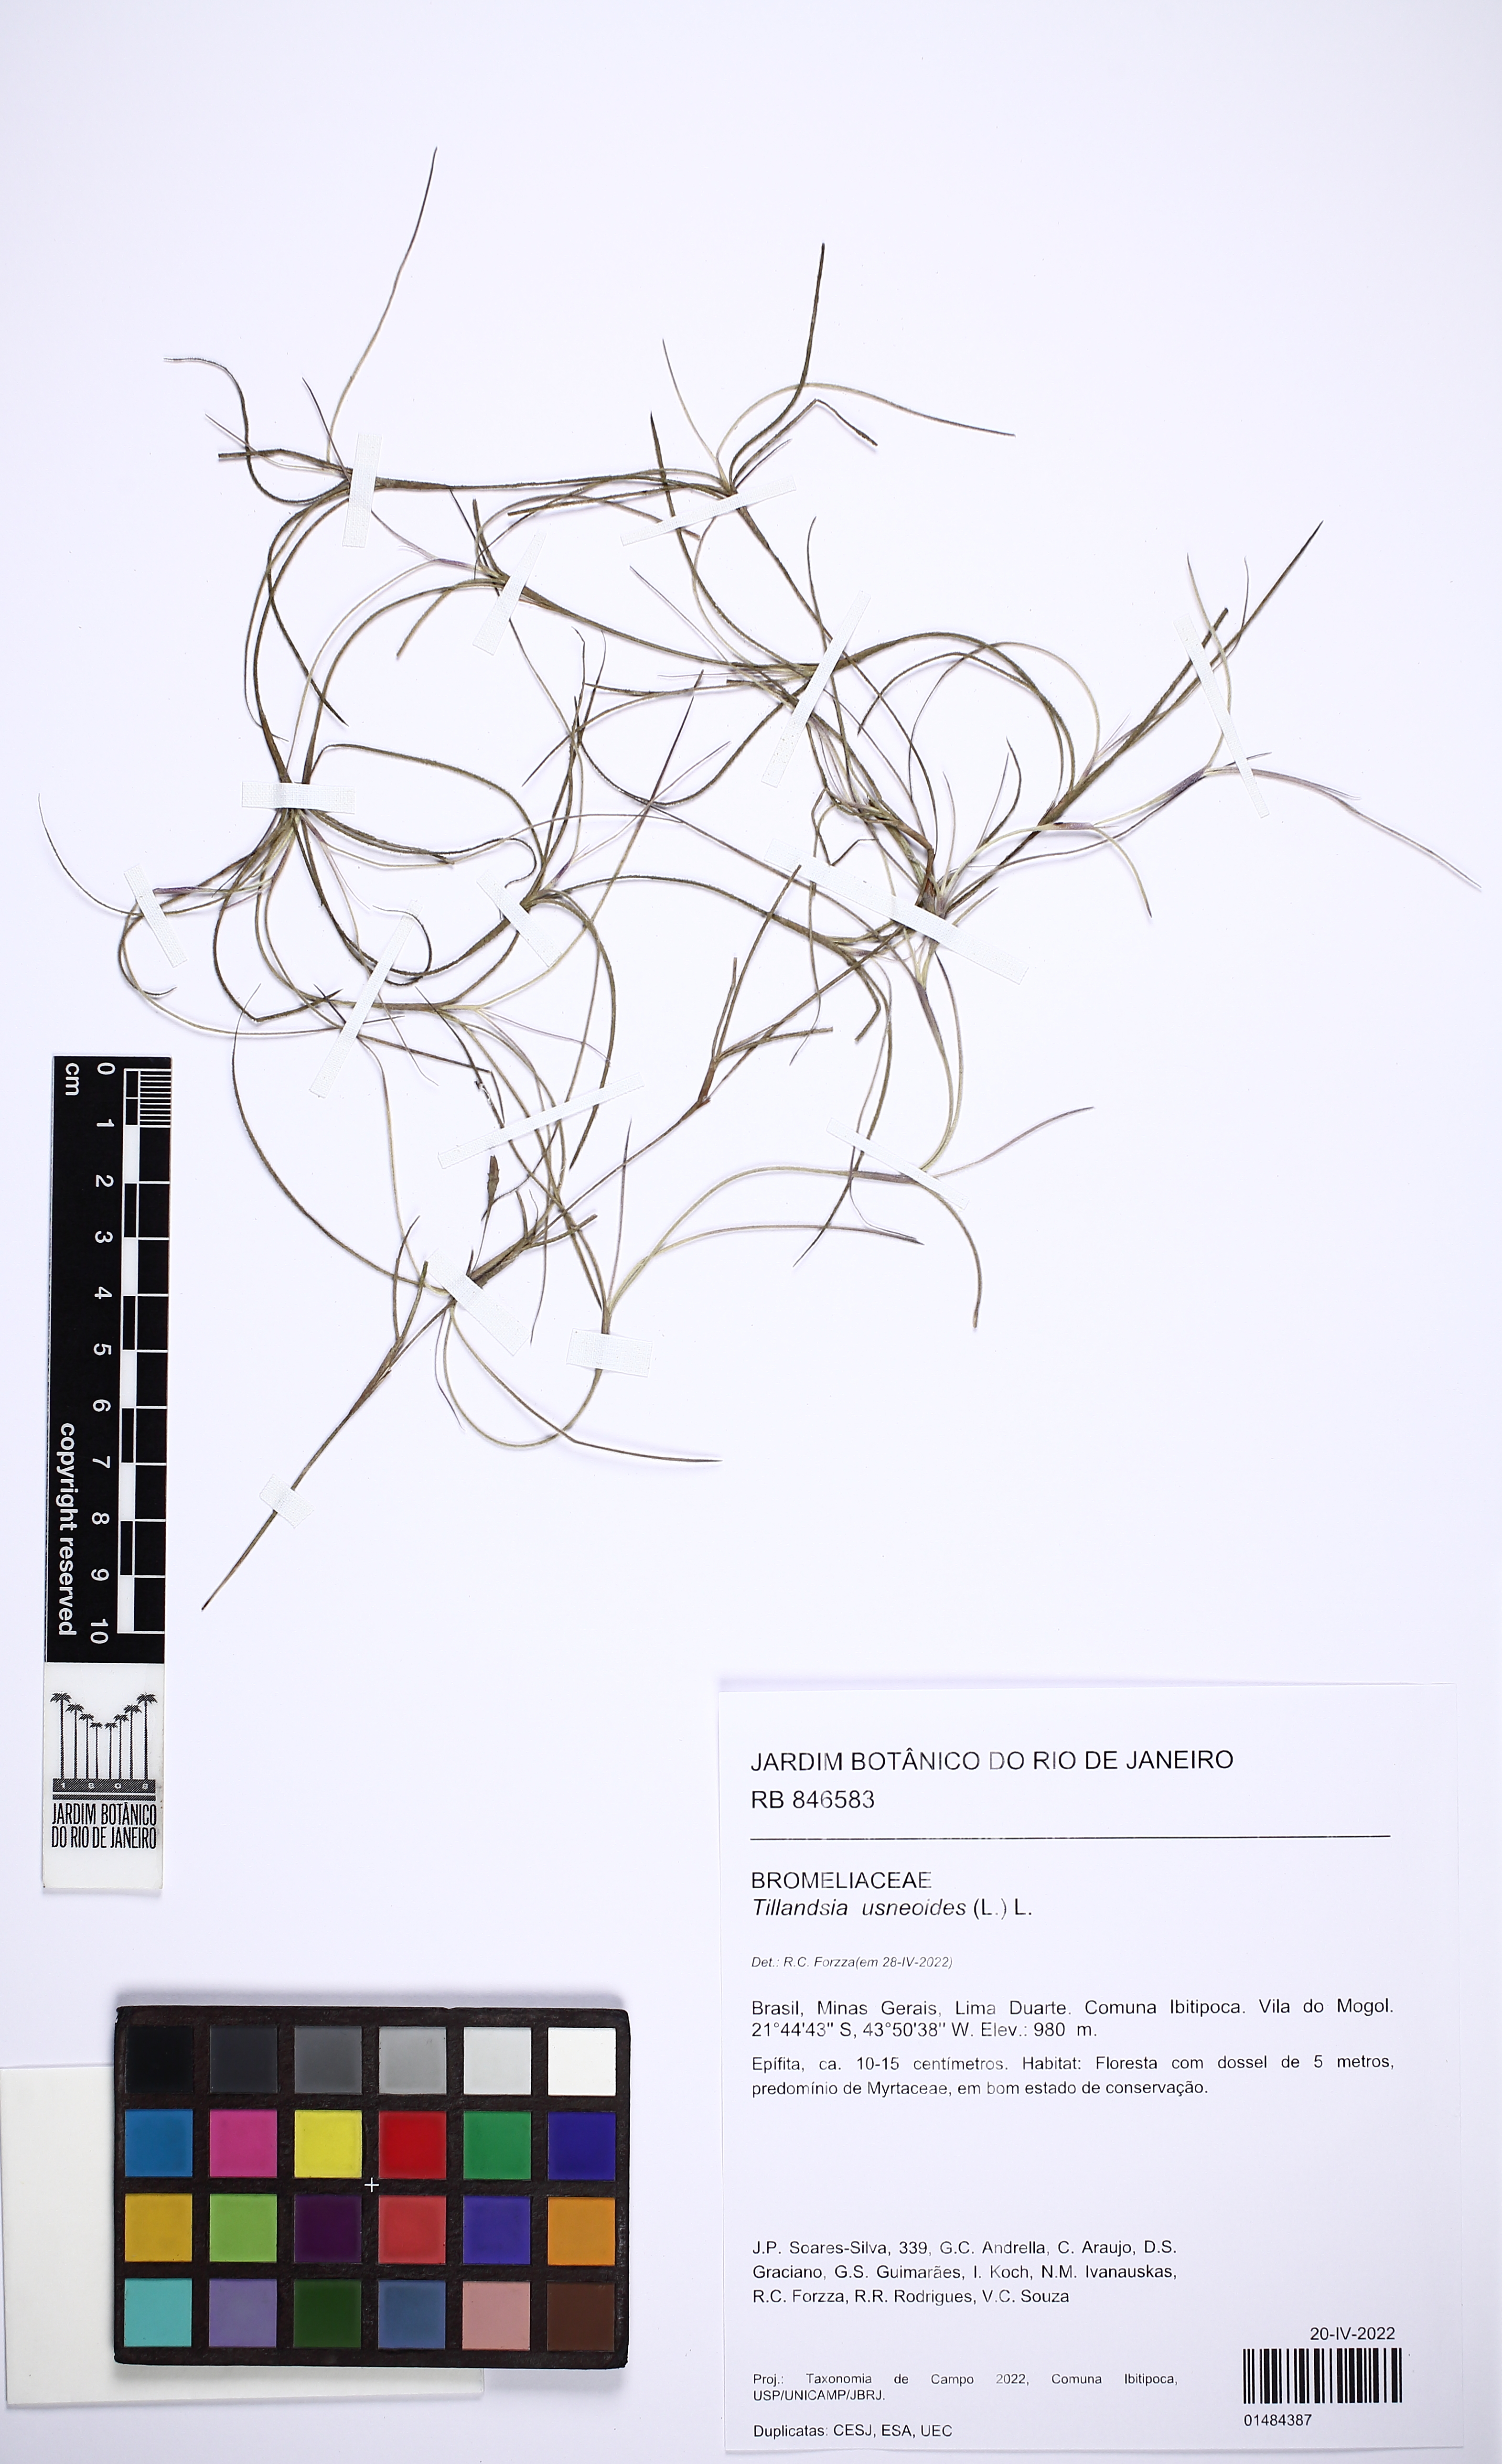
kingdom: Plantae
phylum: Tracheophyta
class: Liliopsida
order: Poales
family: Bromeliaceae
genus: Tillandsia
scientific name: Tillandsia usneoides
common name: Spanish moss
